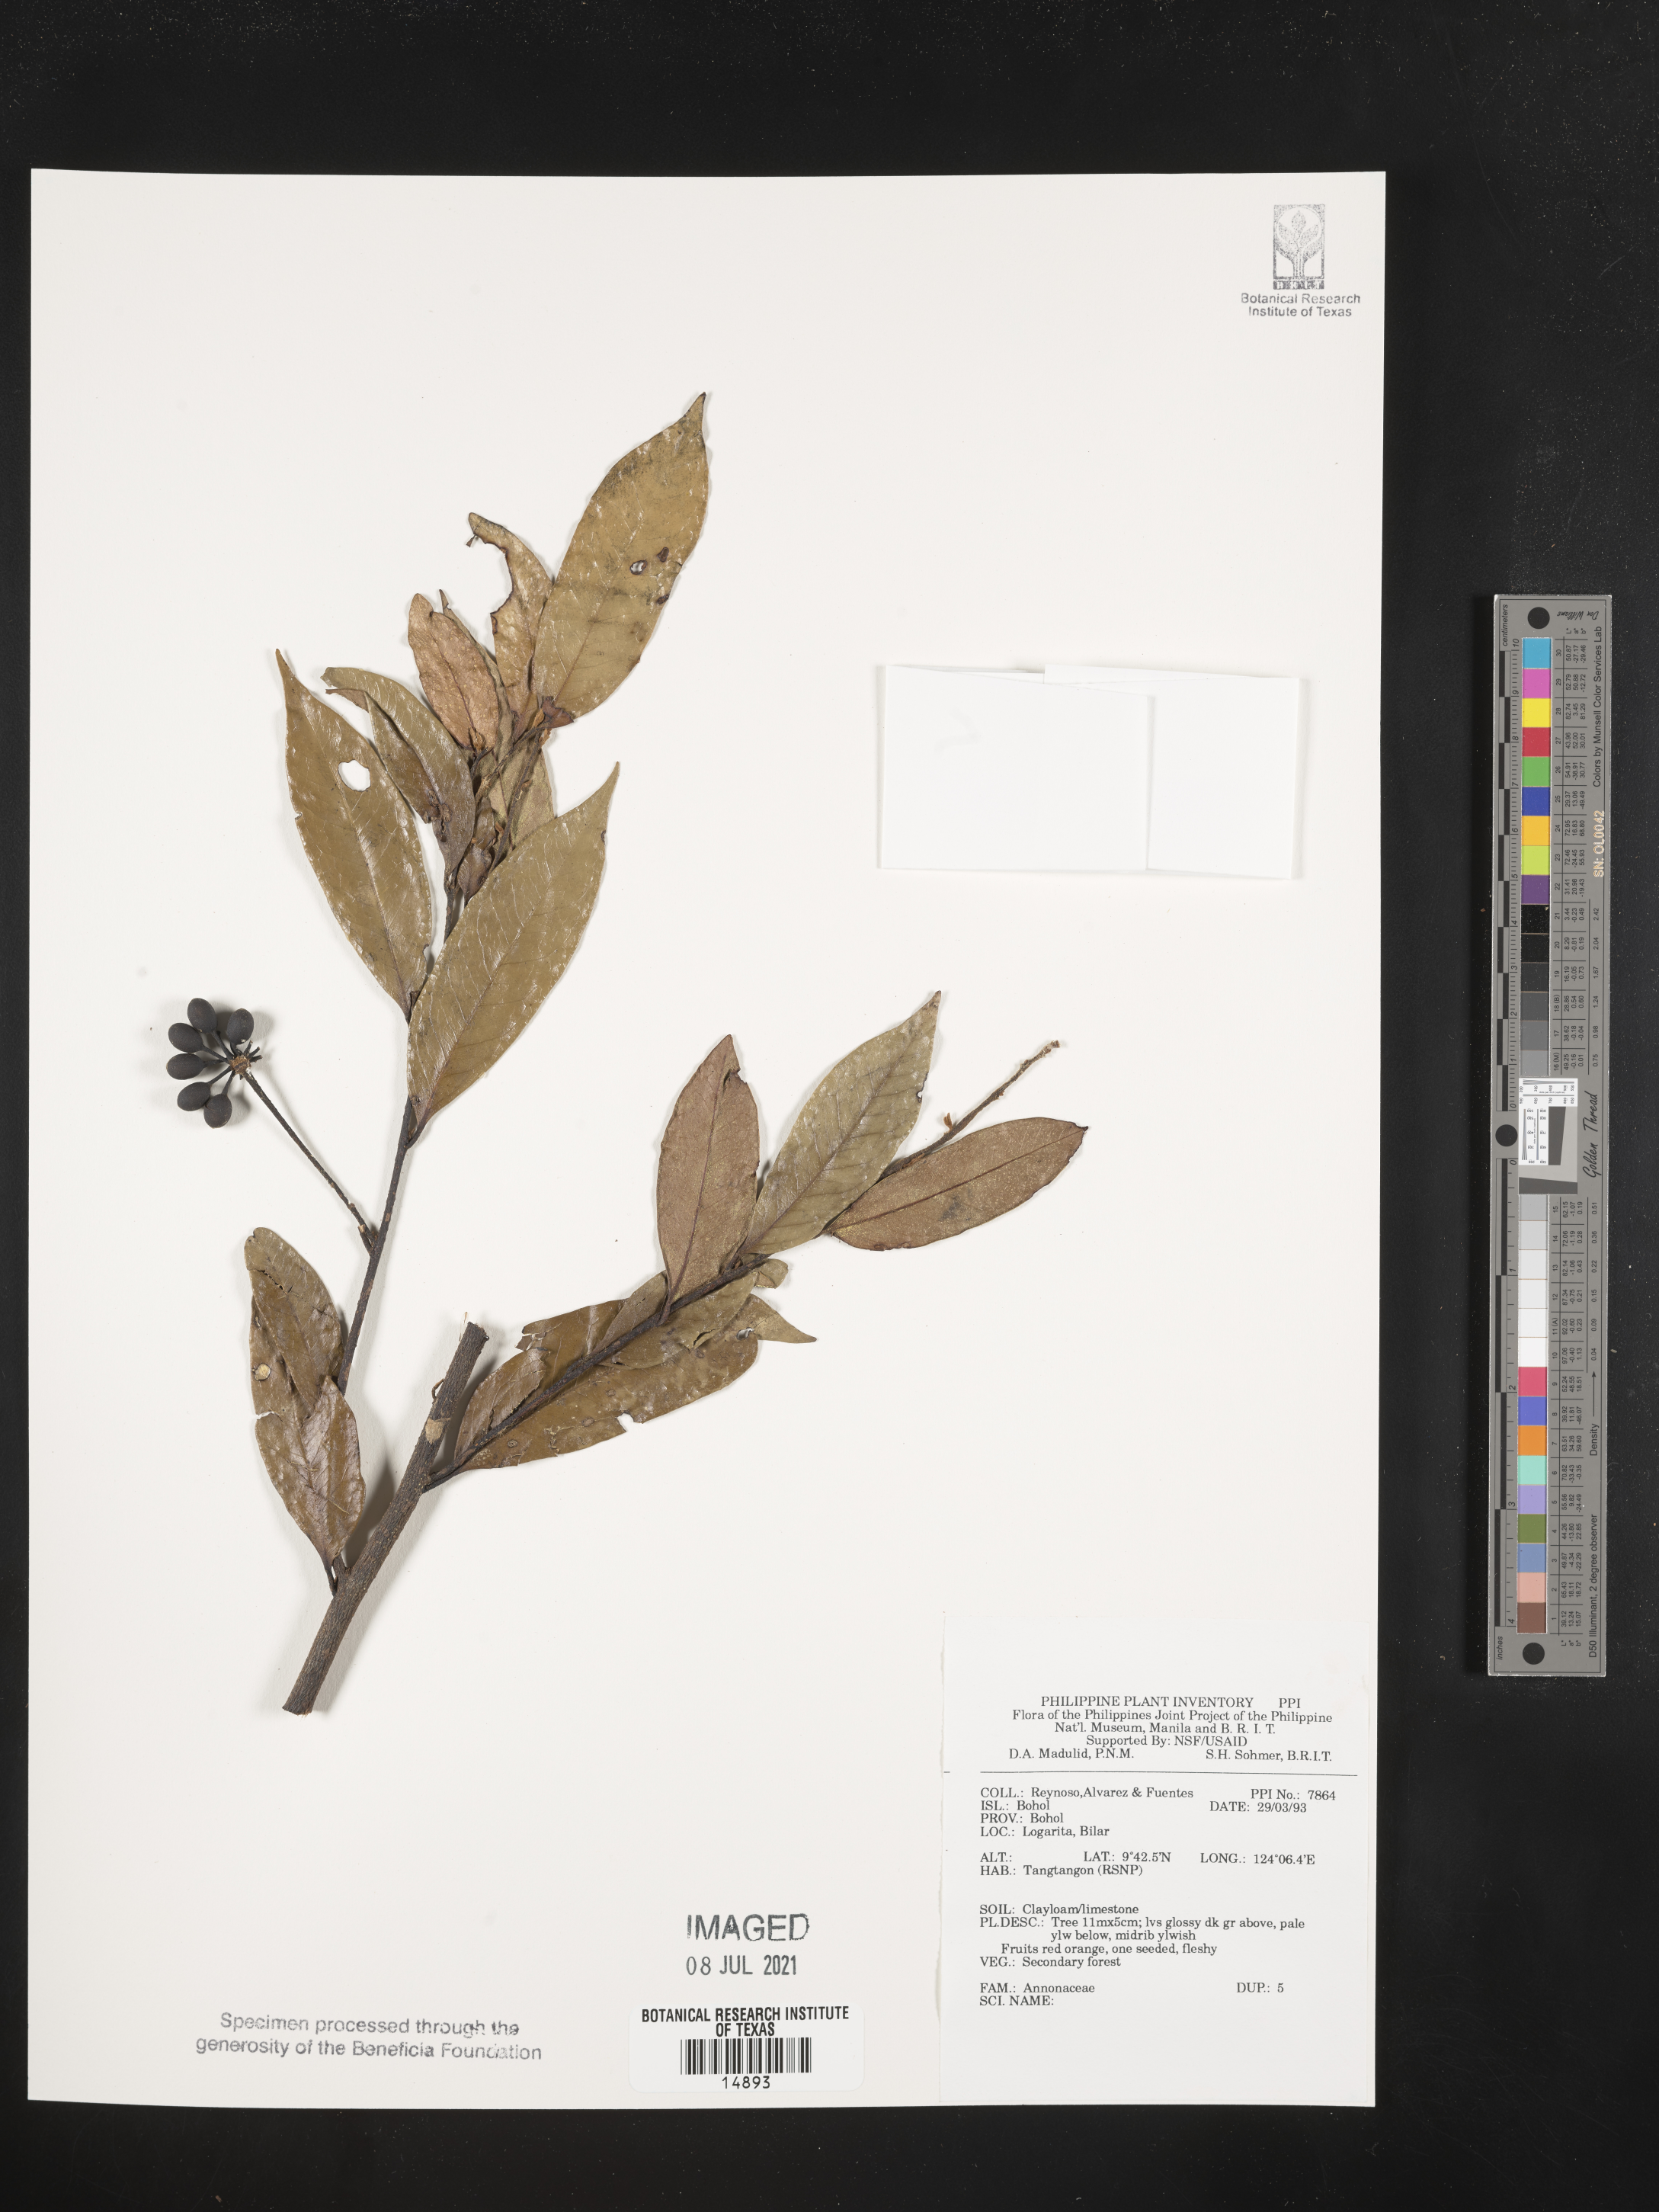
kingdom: Plantae
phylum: Tracheophyta
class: Magnoliopsida
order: Magnoliales
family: Annonaceae
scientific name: Annonaceae
